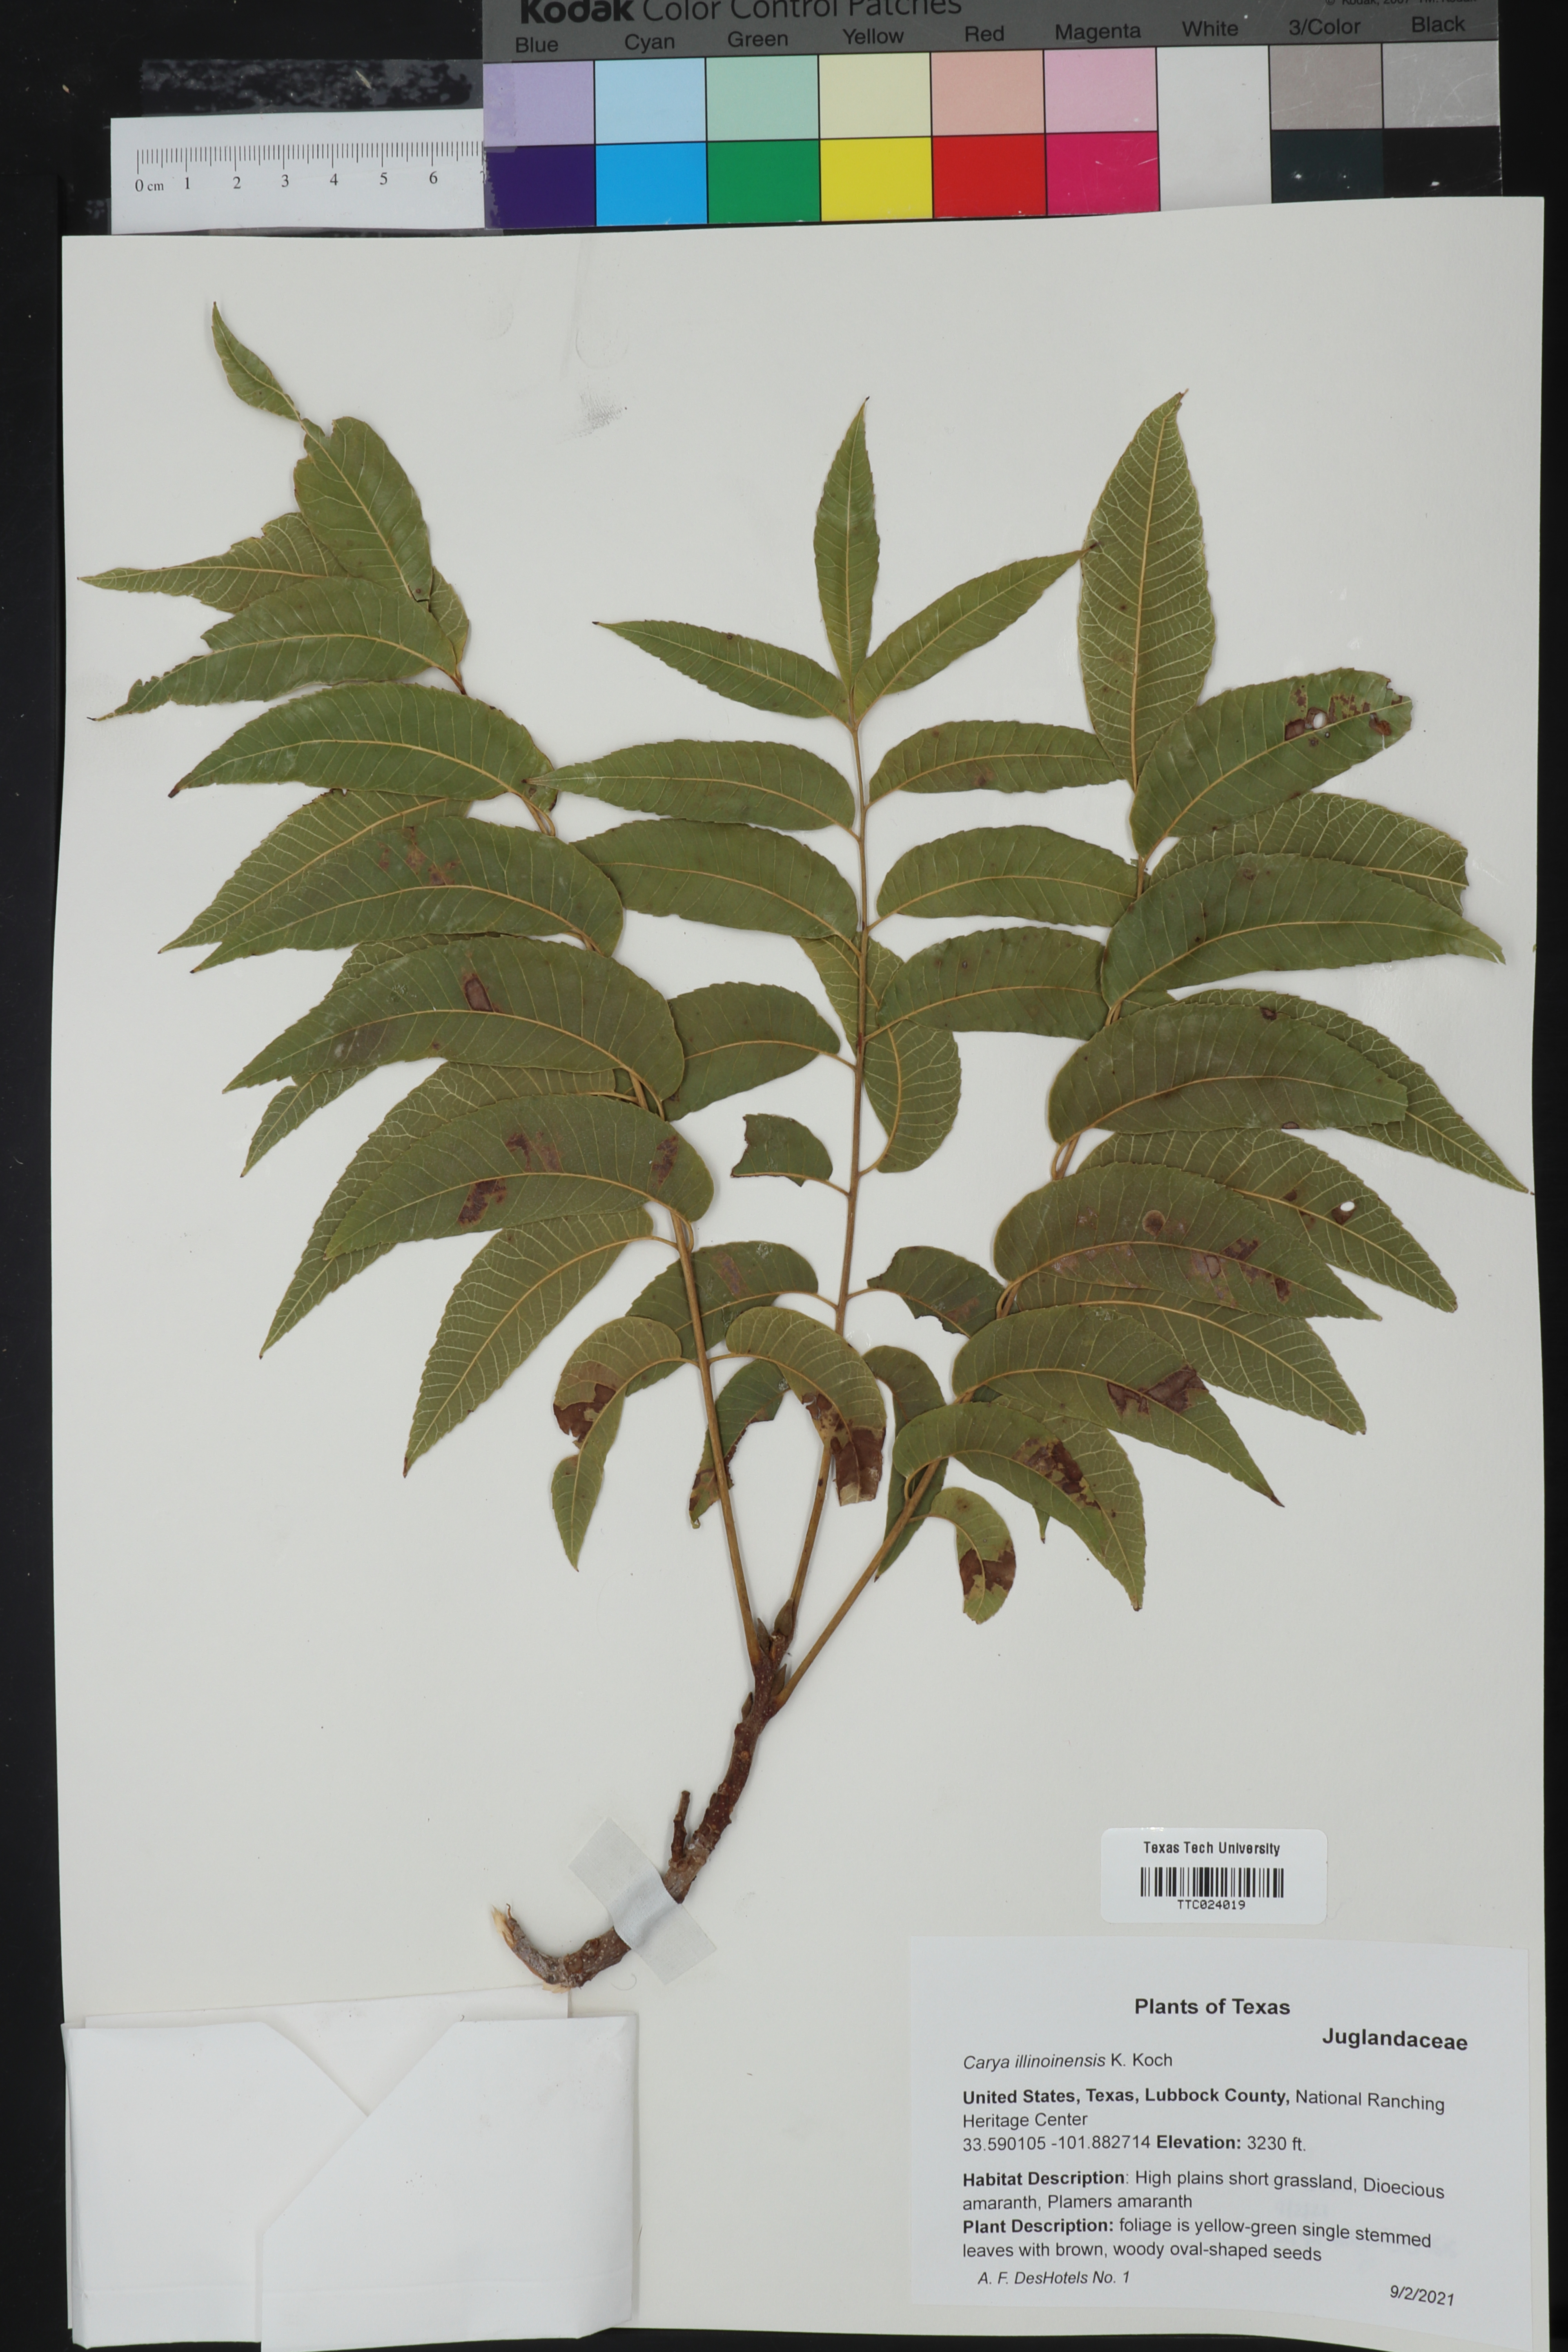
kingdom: Plantae
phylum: Tracheophyta
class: Magnoliopsida
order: Fagales
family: Juglandaceae
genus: Carya
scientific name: Carya illinoinensis
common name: Pecan
